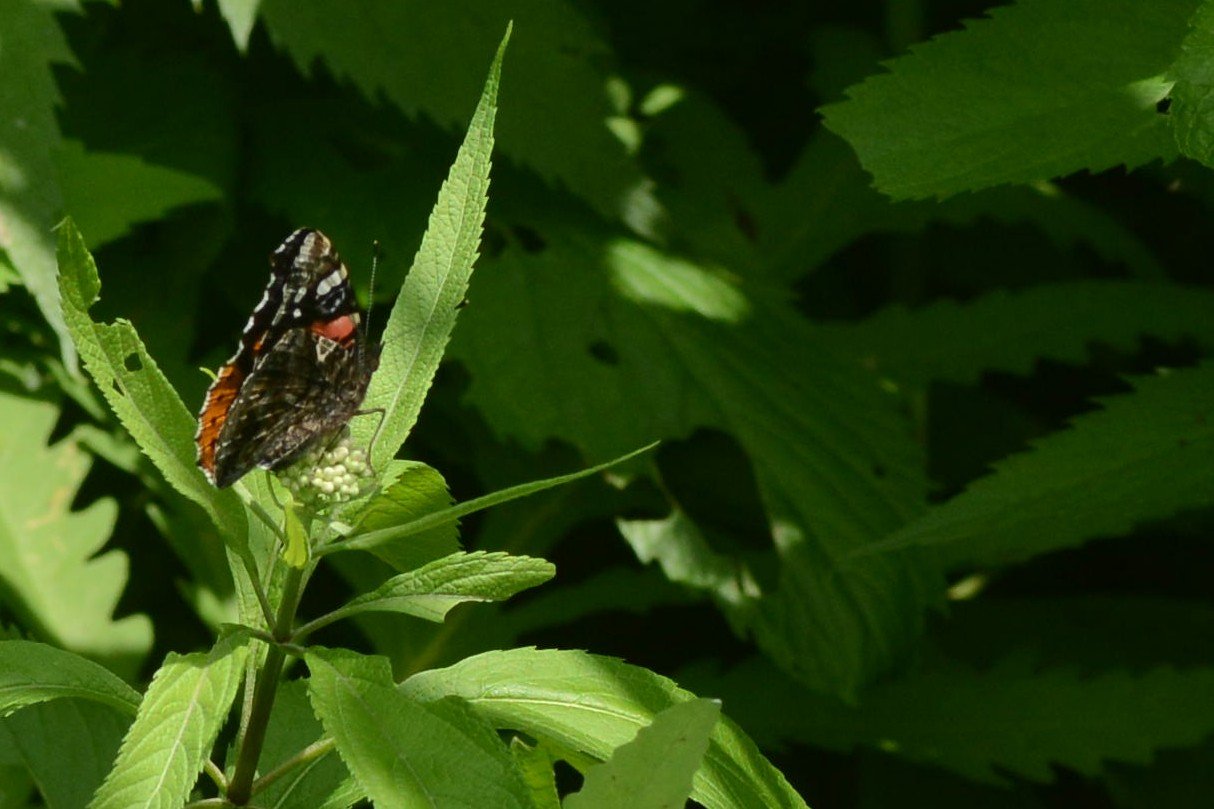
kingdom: Animalia
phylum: Arthropoda
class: Insecta
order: Lepidoptera
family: Nymphalidae
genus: Vanessa
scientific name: Vanessa atalanta
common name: Red Admiral
